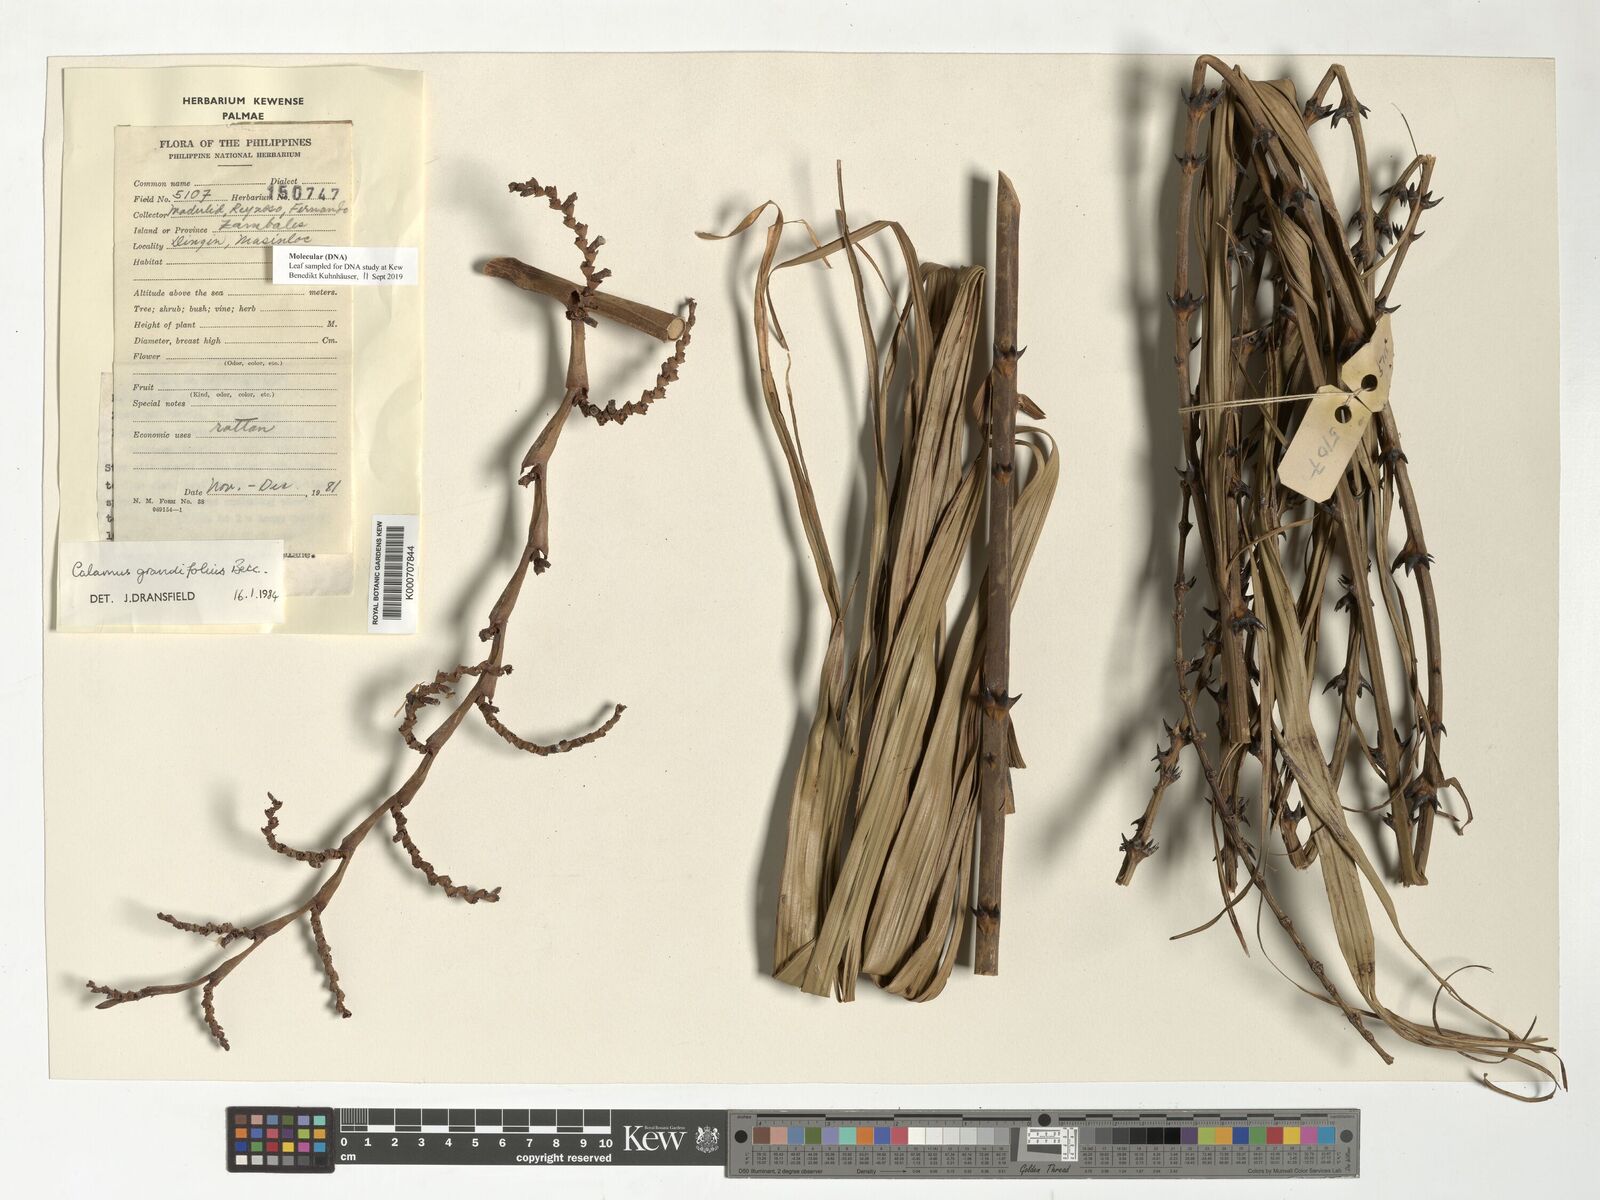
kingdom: Plantae
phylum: Tracheophyta
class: Liliopsida
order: Arecales
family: Arecaceae
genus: Calamus
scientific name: Calamus moseleyanus
